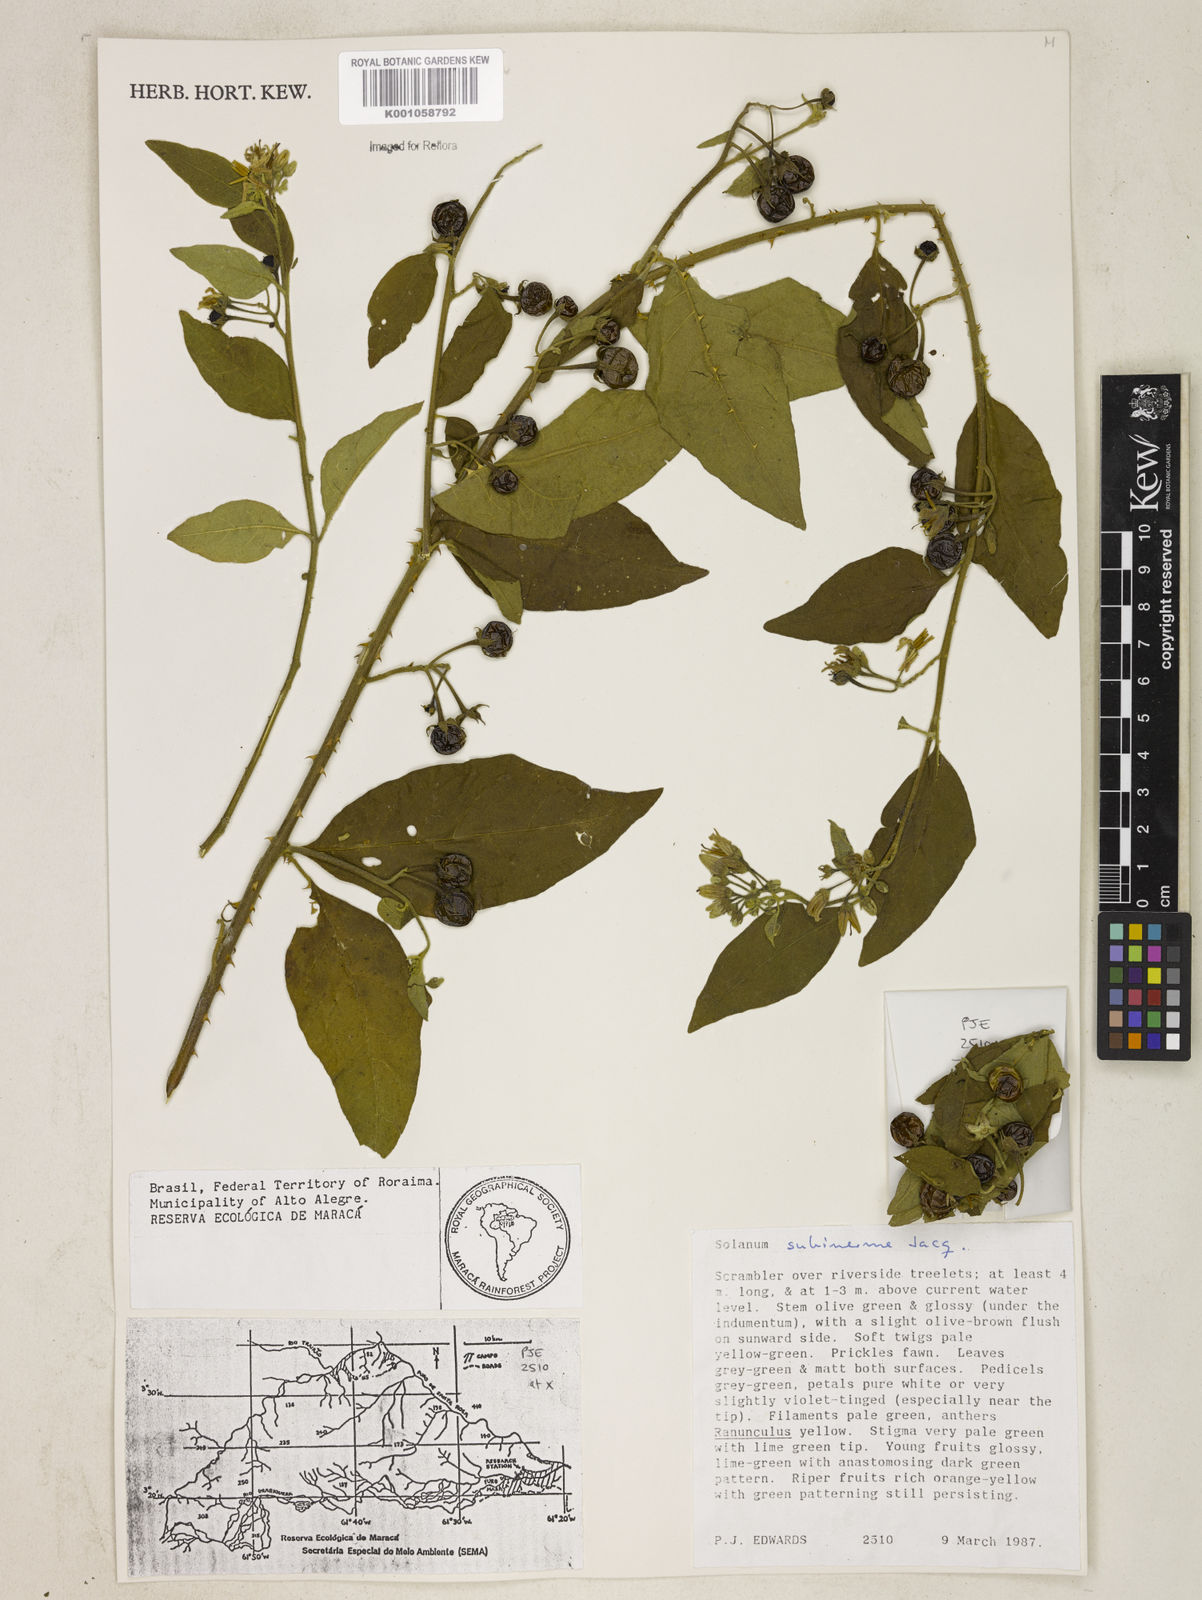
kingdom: Plantae
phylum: Tracheophyta
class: Magnoliopsida
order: Solanales
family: Solanaceae
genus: Solanum
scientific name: Solanum subinerme
